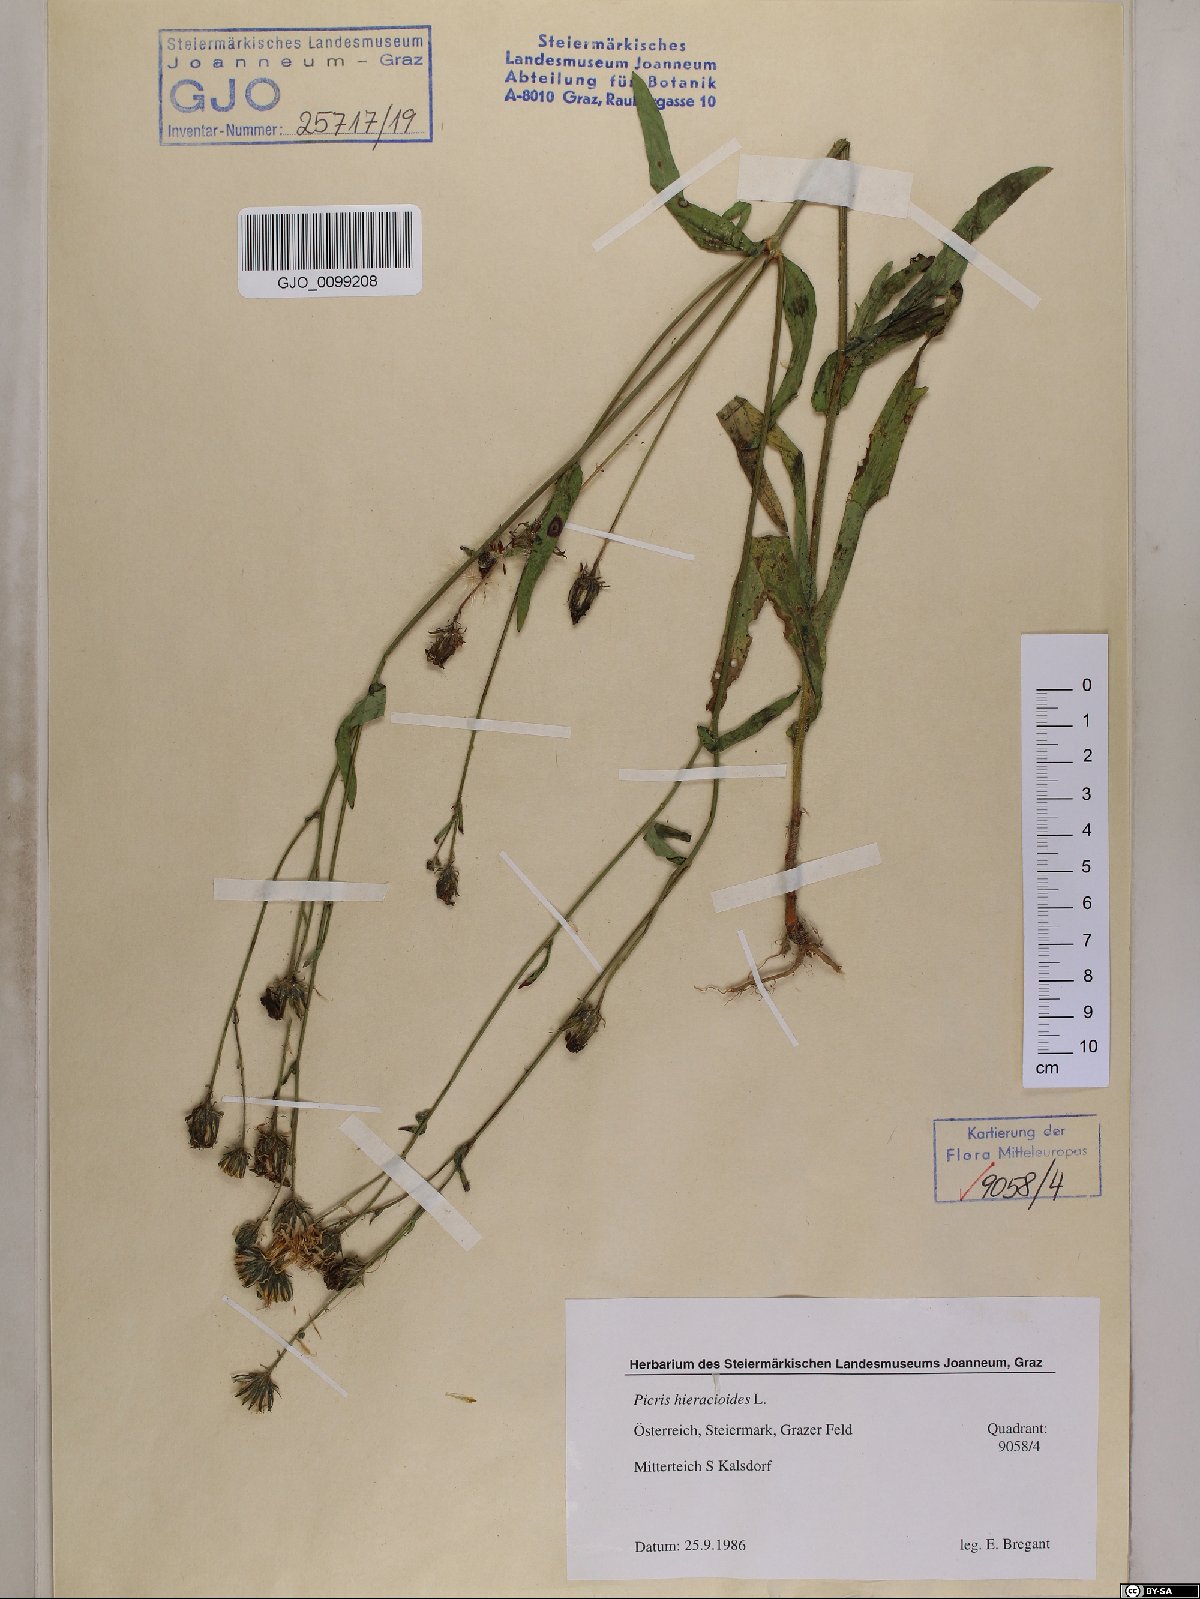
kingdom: Plantae
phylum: Tracheophyta
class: Magnoliopsida
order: Asterales
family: Asteraceae
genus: Picris
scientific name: Picris hieracioides
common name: Hawkweed oxtongue
